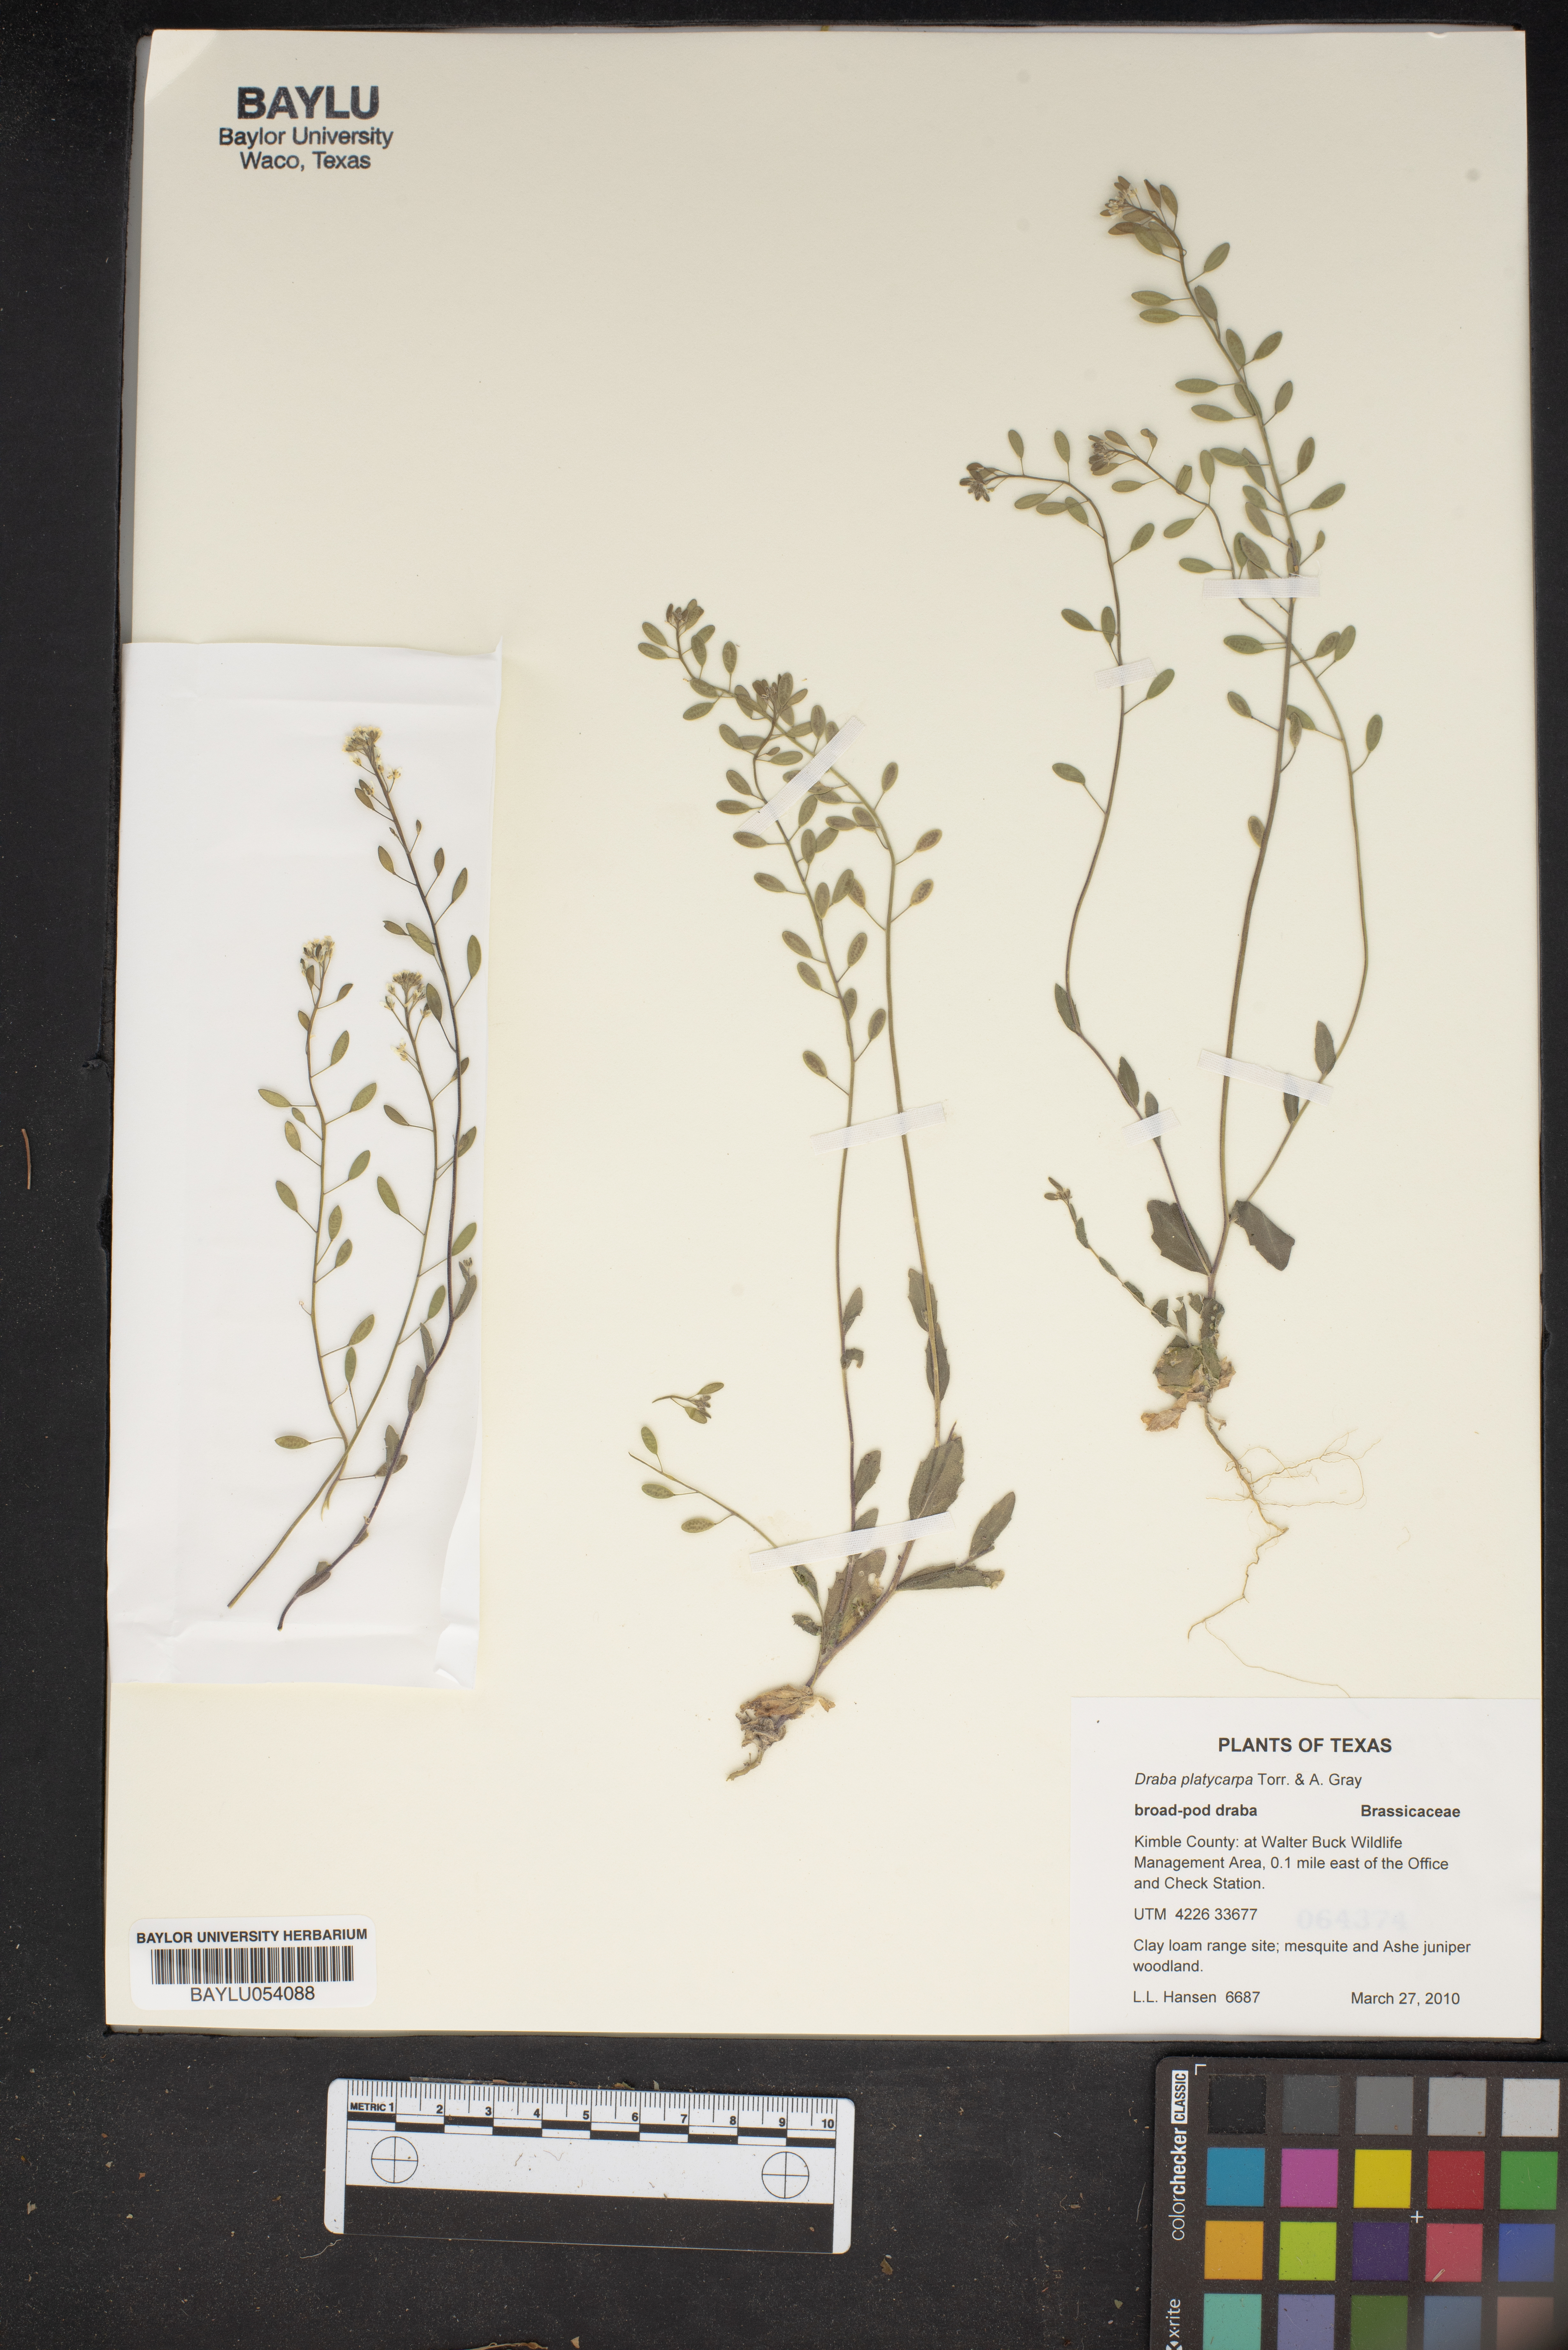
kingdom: Plantae
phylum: Tracheophyta
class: Magnoliopsida
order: Brassicales
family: Brassicaceae
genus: Tomostima
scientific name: Tomostima platycarpa
